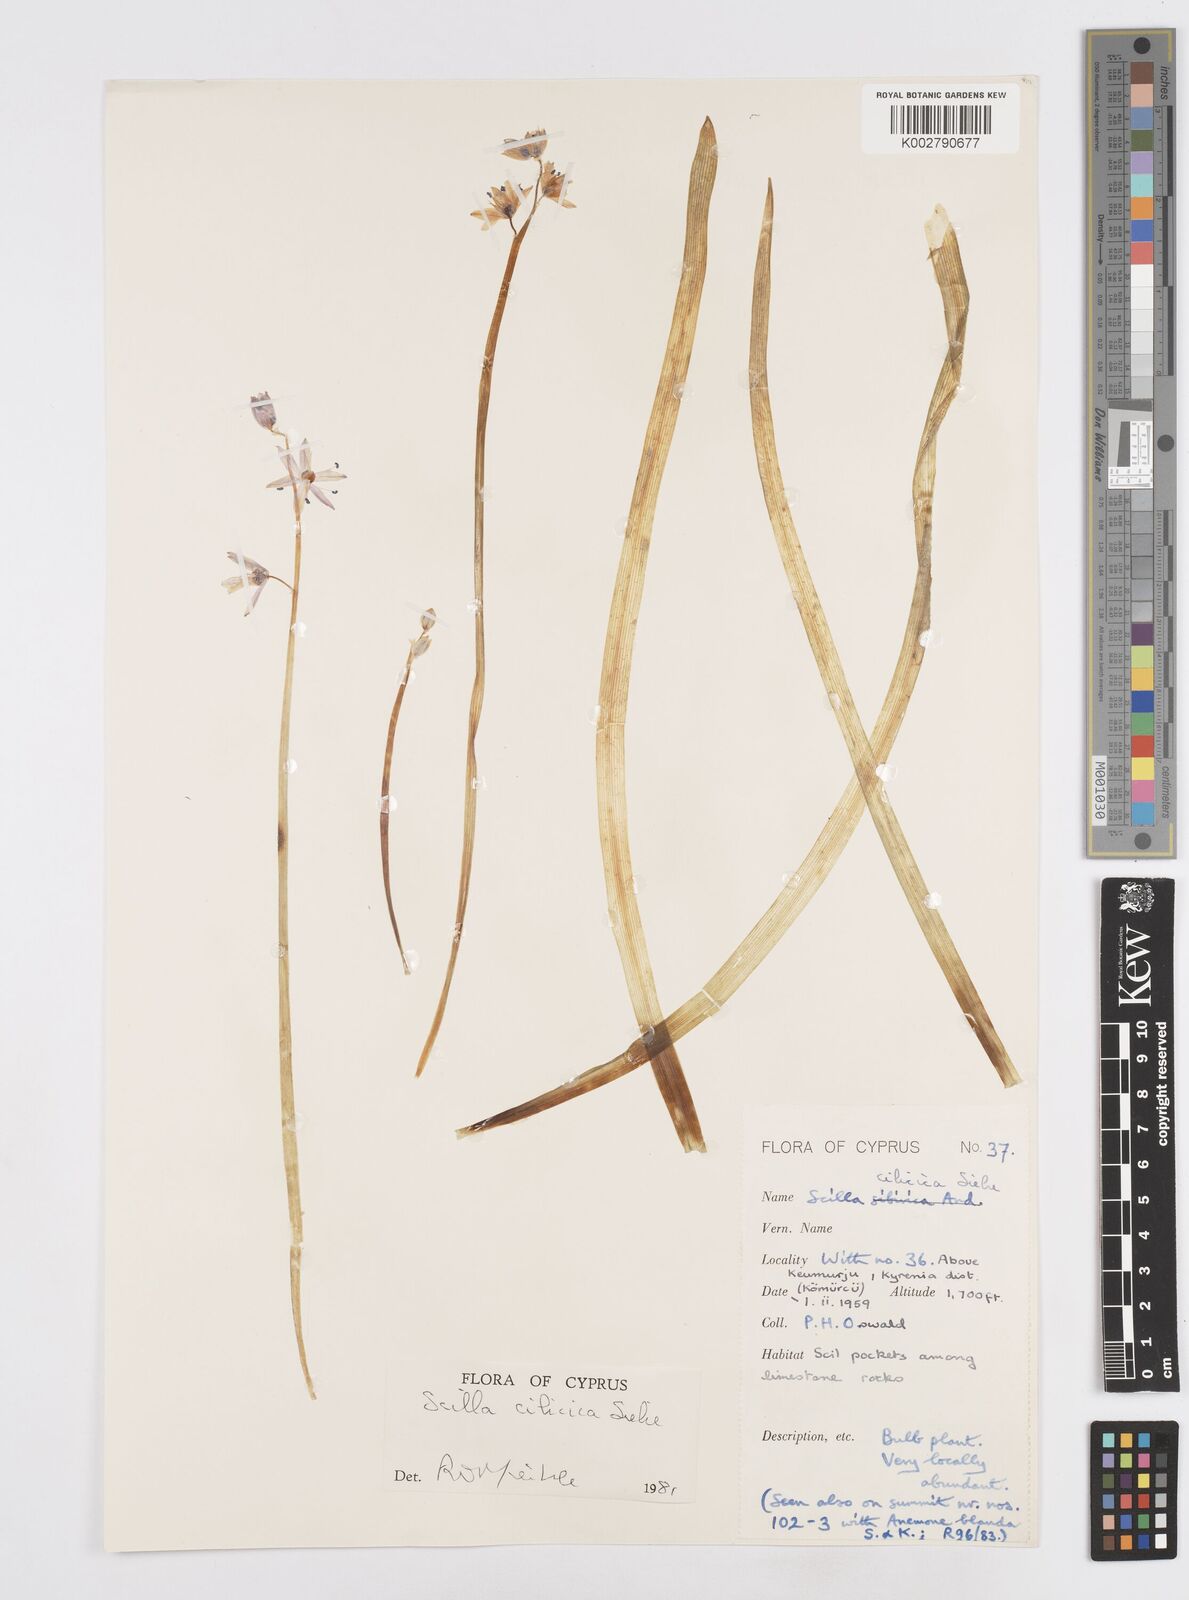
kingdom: Plantae
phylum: Tracheophyta
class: Liliopsida
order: Asparagales
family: Asparagaceae
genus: Scilla
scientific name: Scilla siberica
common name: Siberian squill
